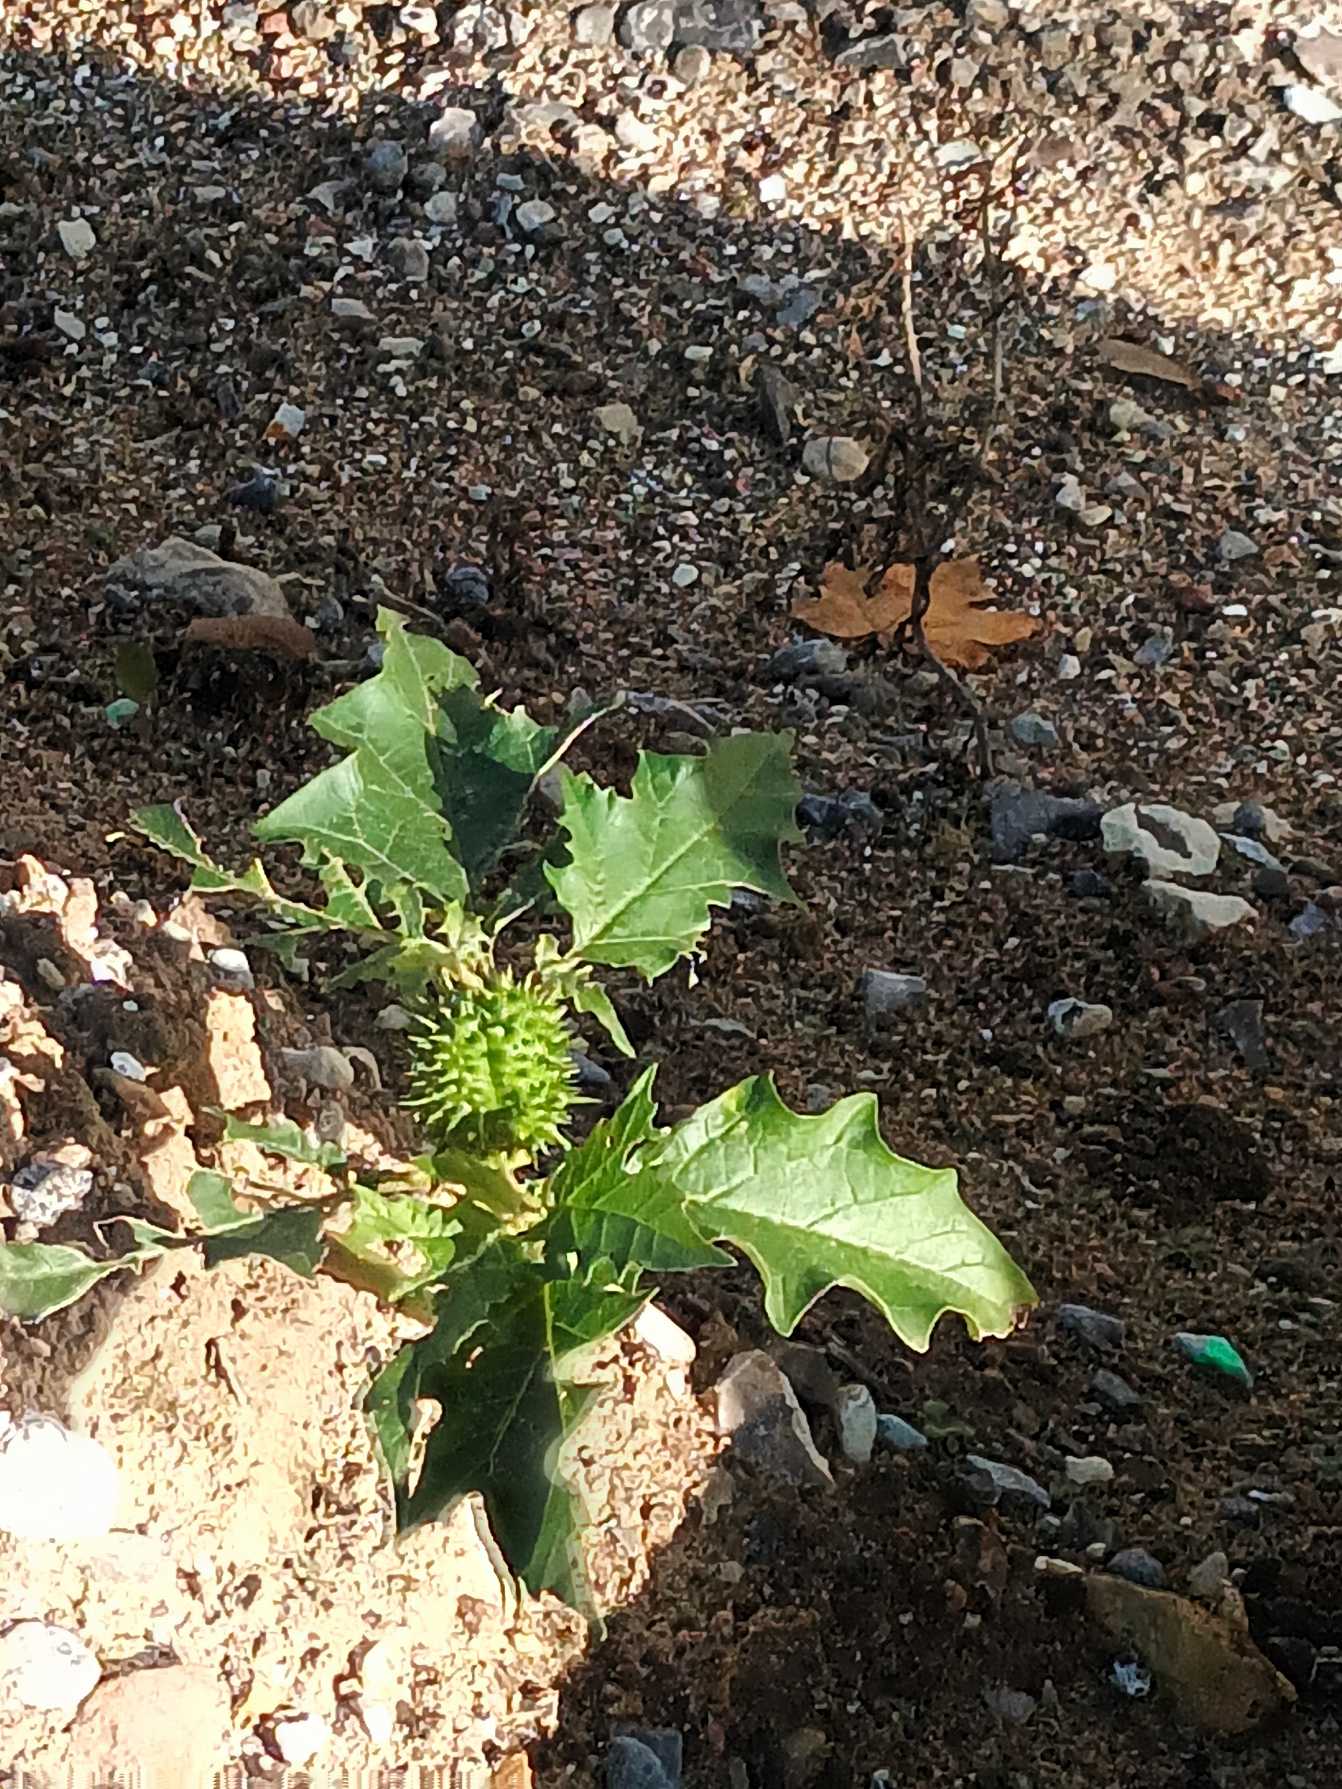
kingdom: Plantae
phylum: Tracheophyta
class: Magnoliopsida
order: Solanales
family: Solanaceae
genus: Datura
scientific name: Datura stramonium
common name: Pigæble
